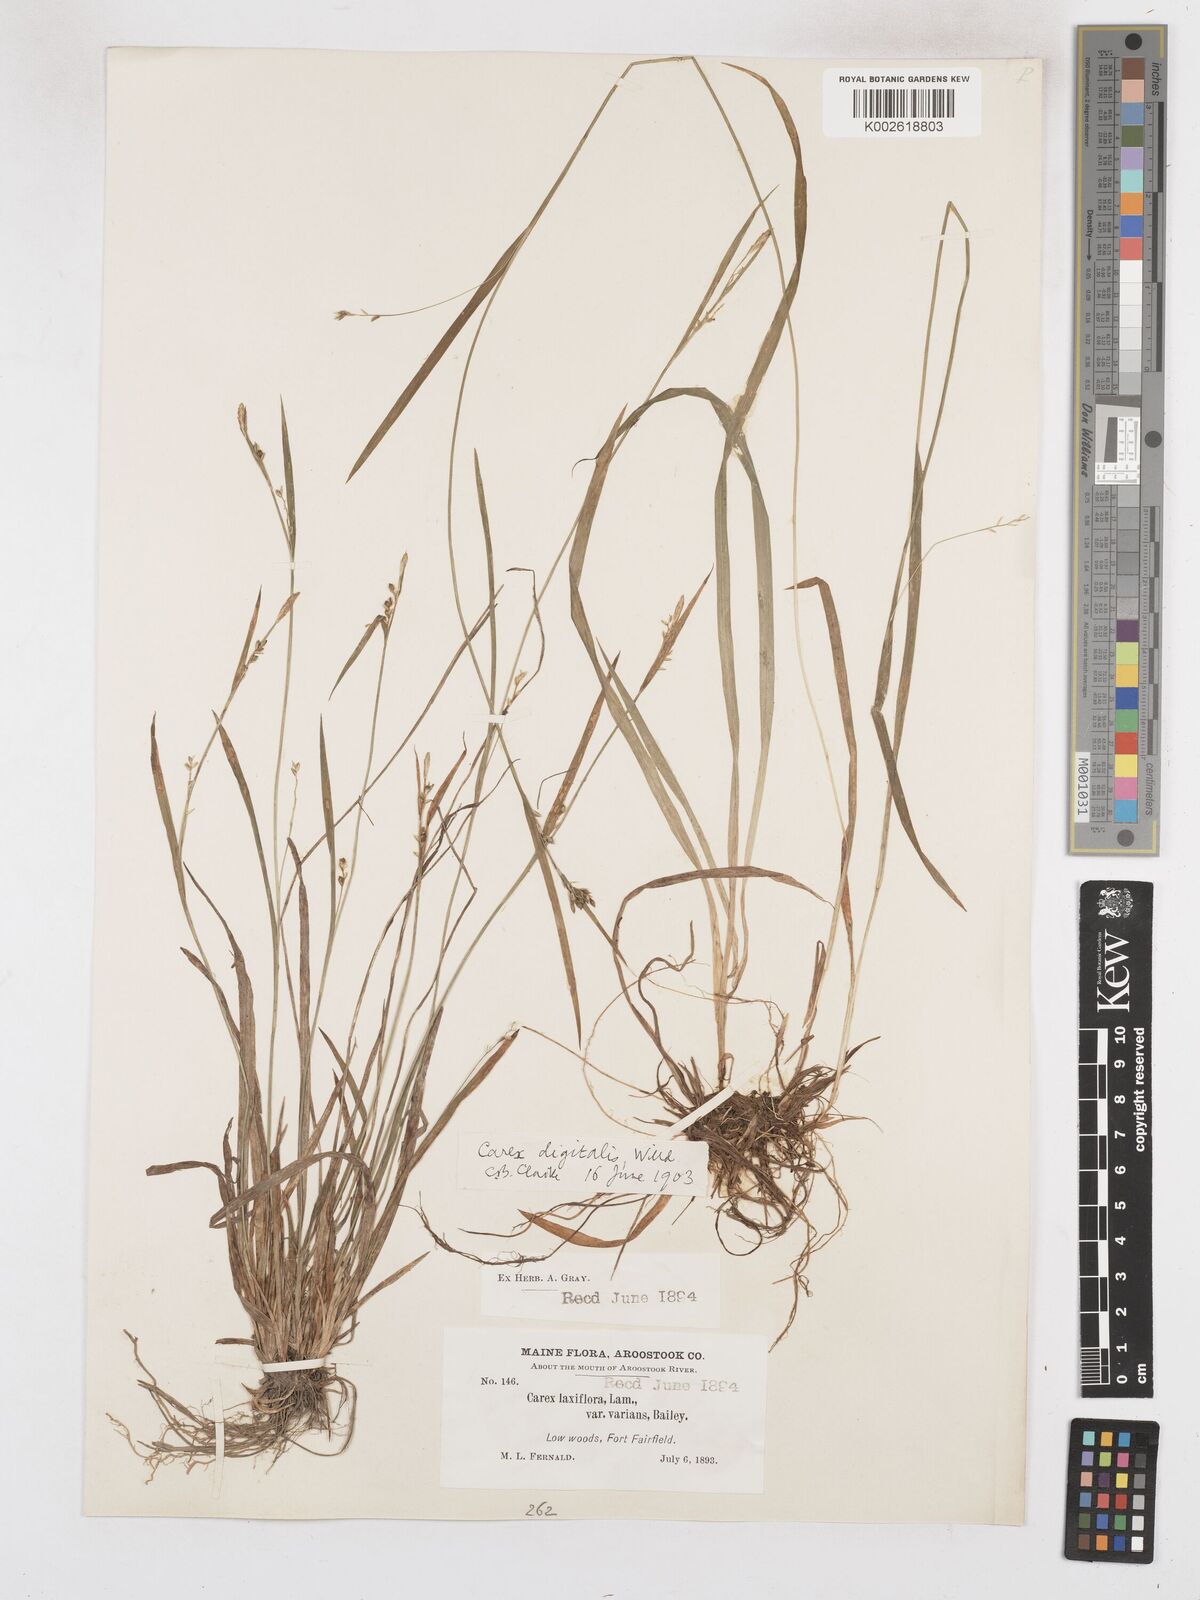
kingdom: Plantae
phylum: Tracheophyta
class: Liliopsida
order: Poales
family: Cyperaceae
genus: Carex
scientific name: Carex digitalis
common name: Slender wood sedge
